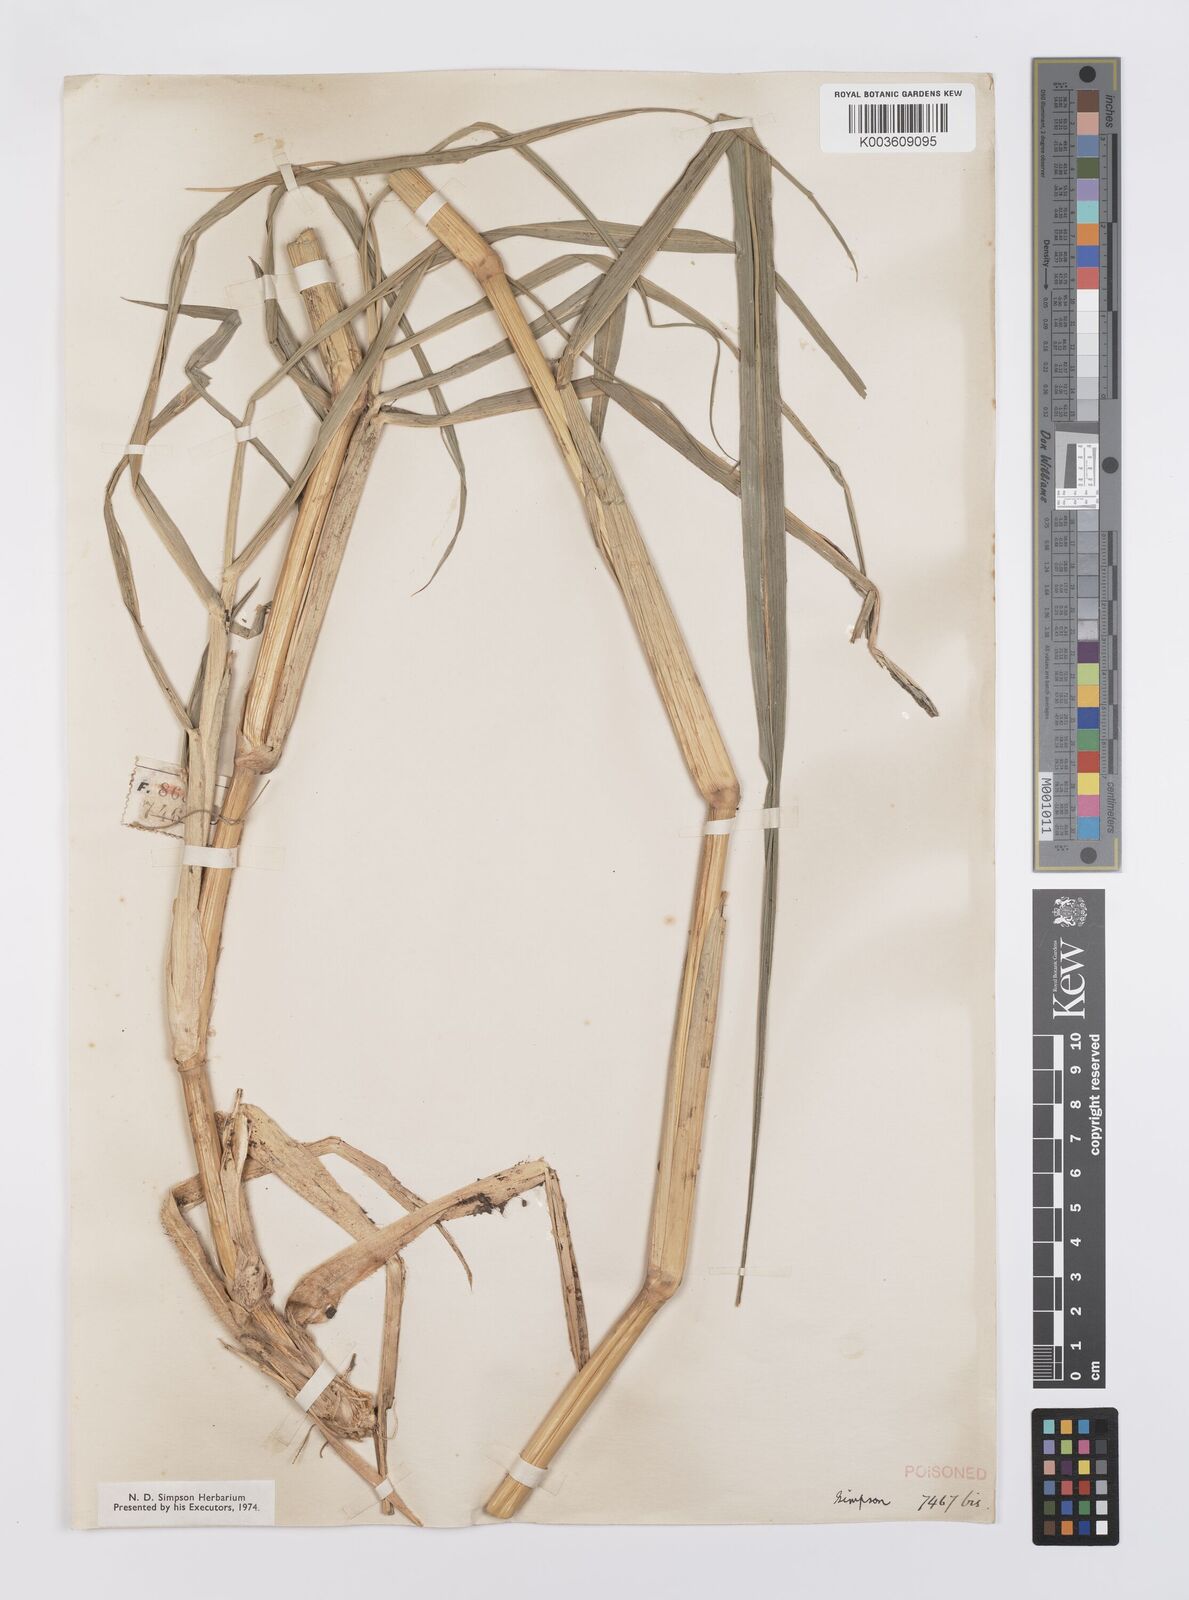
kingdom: Plantae
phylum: Tracheophyta
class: Liliopsida
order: Poales
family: Poaceae
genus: Echinochloa
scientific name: Echinochloa pyramidalis
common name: Antelope grass
